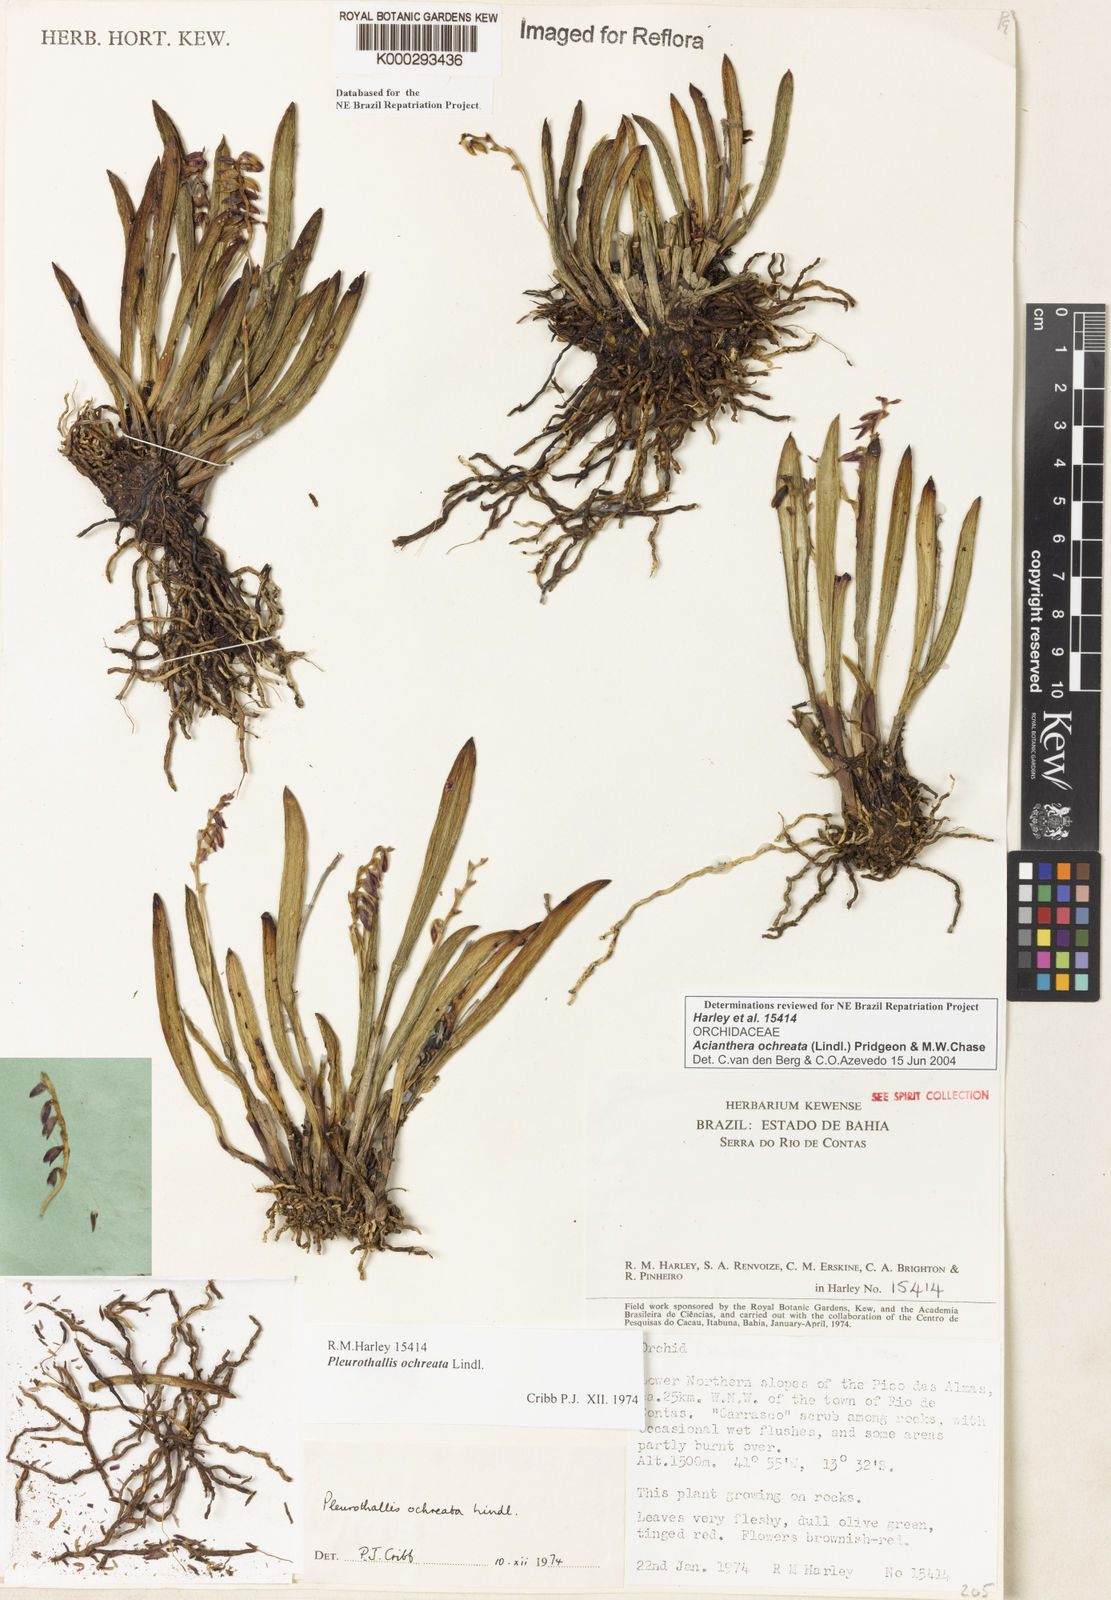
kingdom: Plantae
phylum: Tracheophyta
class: Liliopsida
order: Asparagales
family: Orchidaceae
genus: Acianthera
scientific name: Acianthera ochreata
